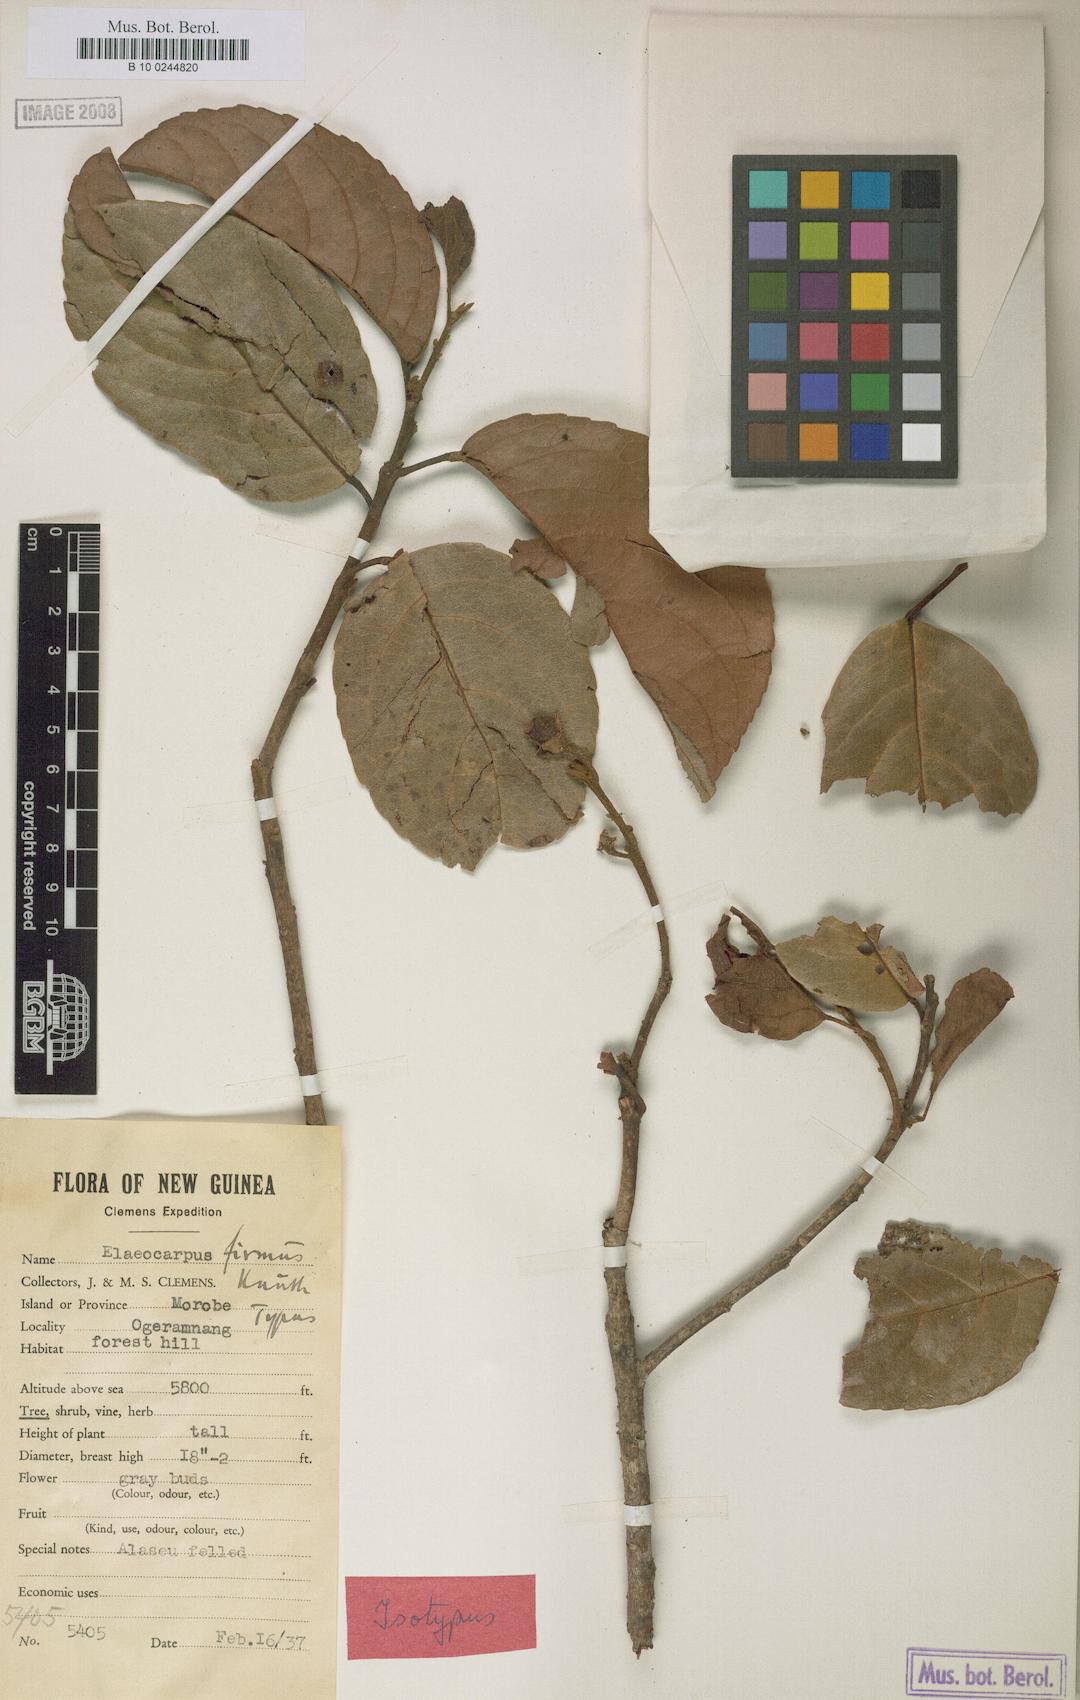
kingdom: Plantae
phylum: Tracheophyta
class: Magnoliopsida
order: Oxalidales
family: Elaeocarpaceae
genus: Elaeocarpus
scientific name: Elaeocarpus firmus
